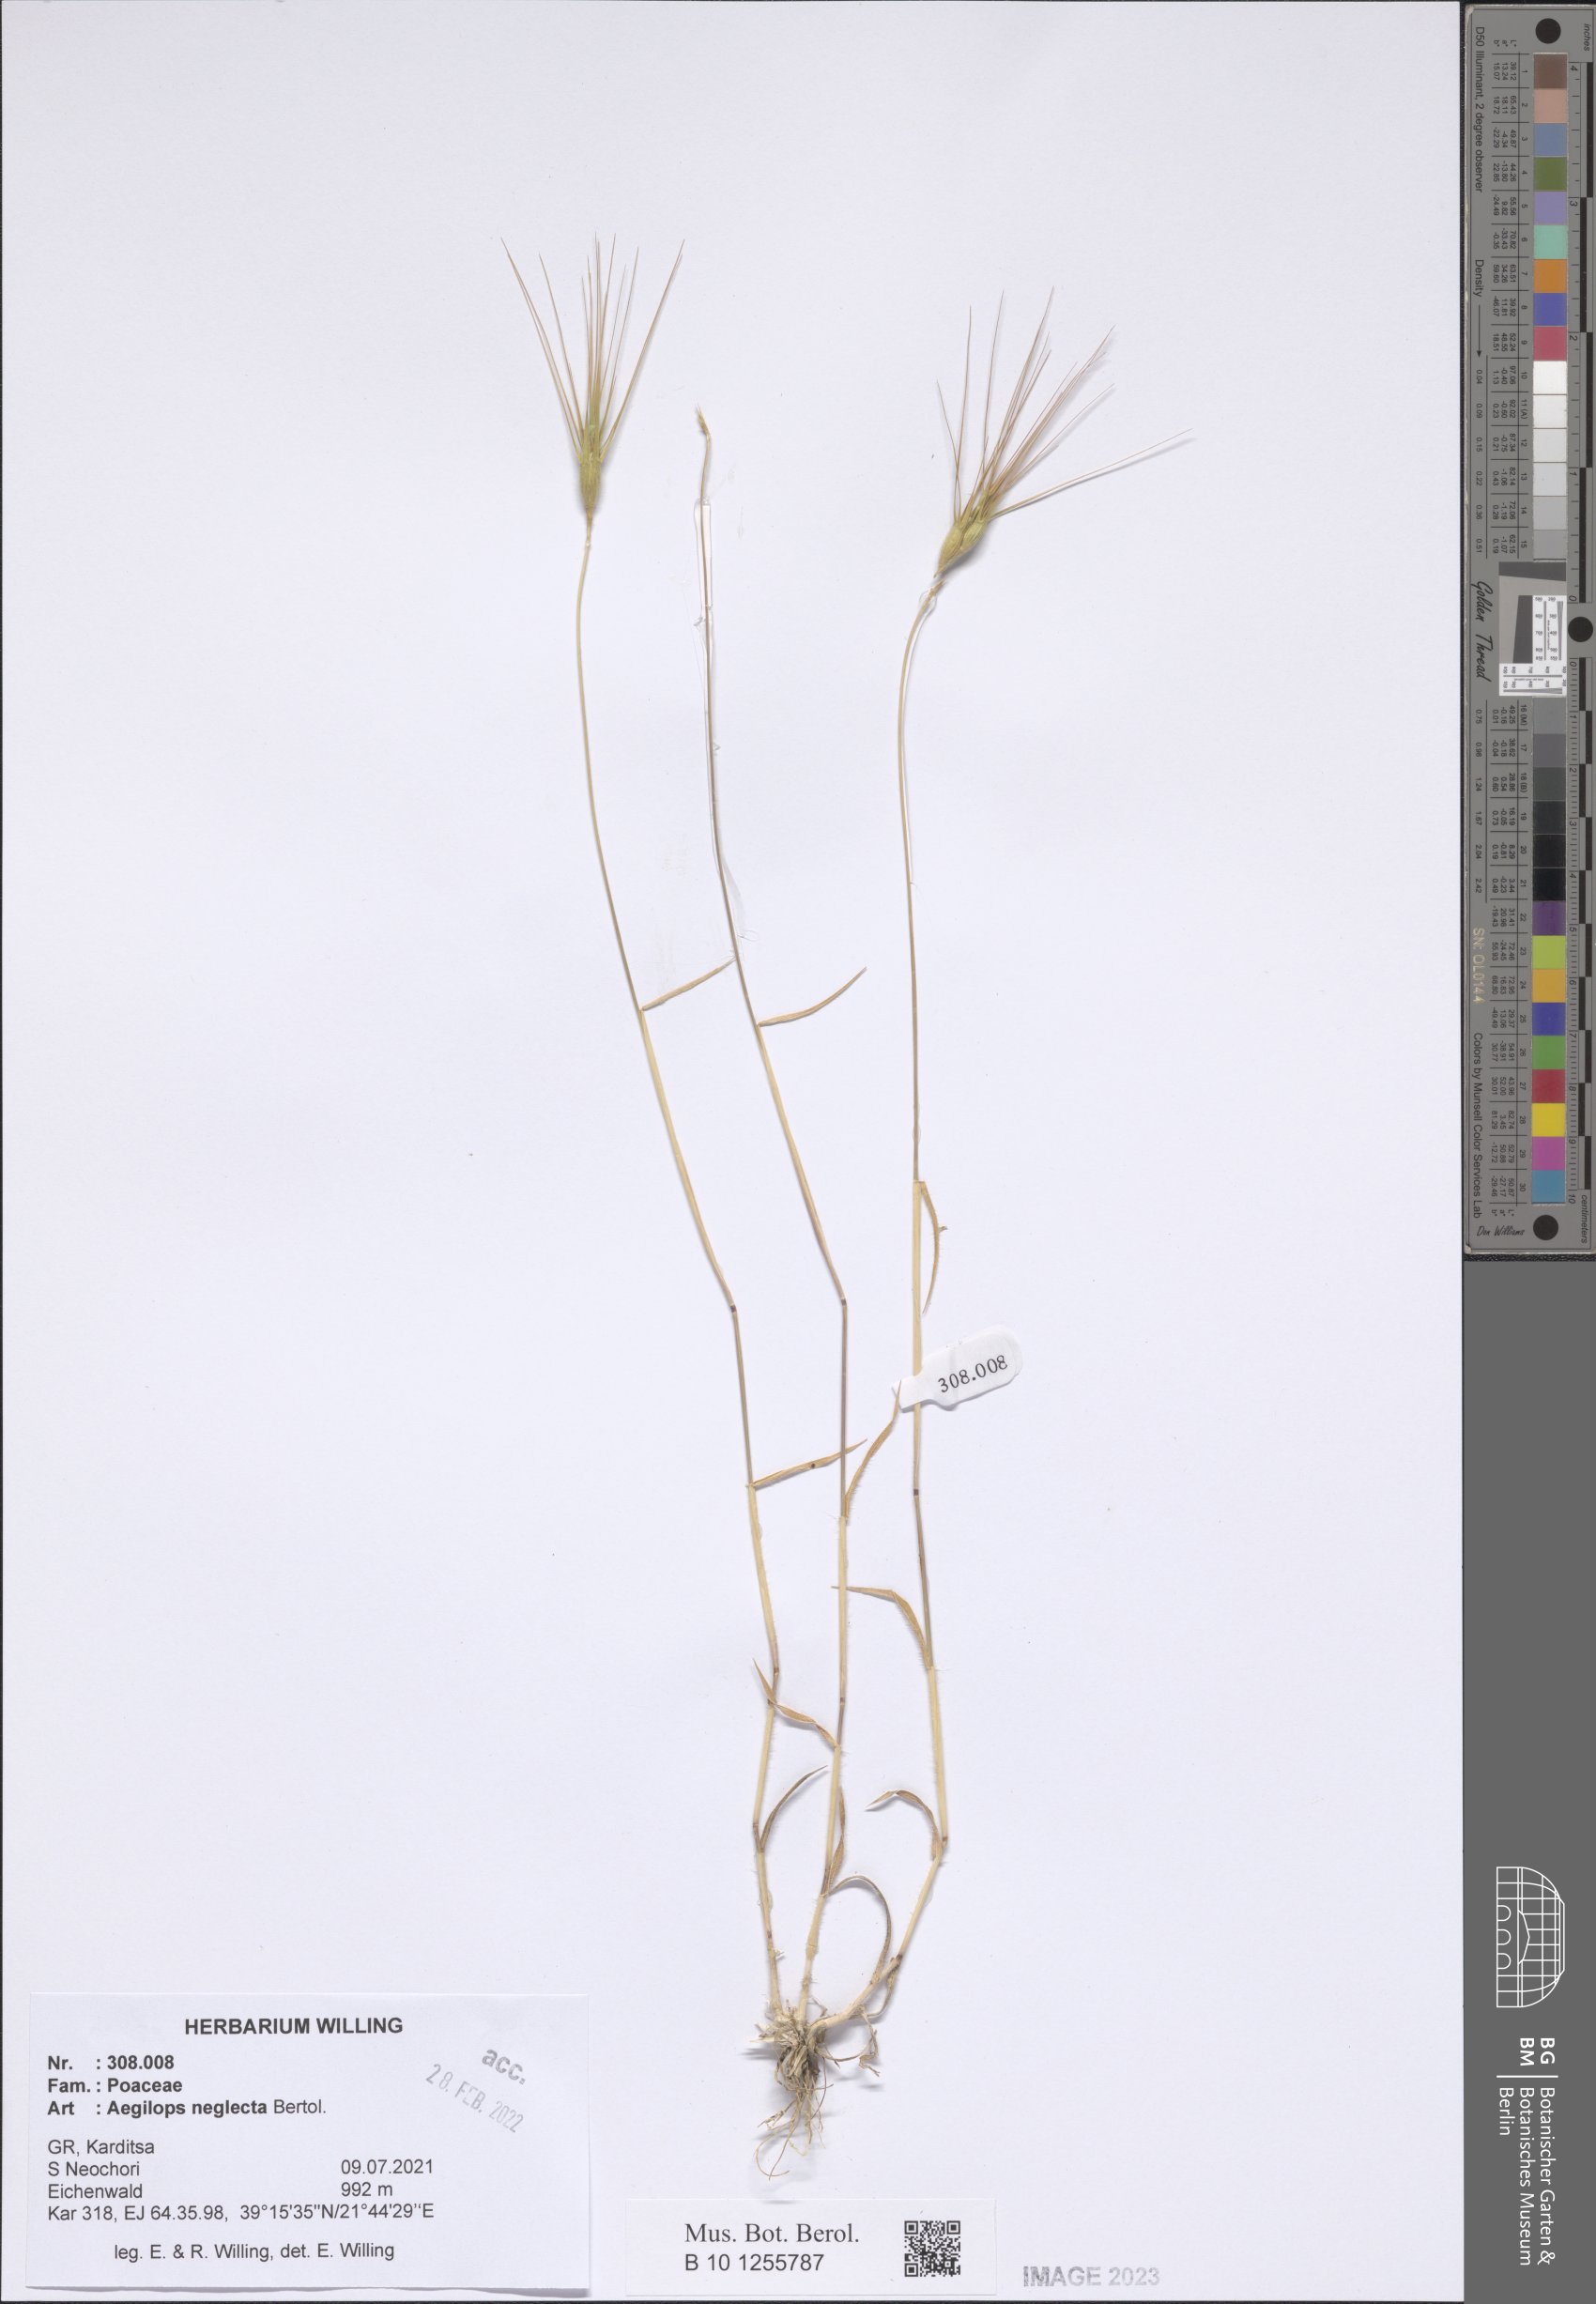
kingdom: Plantae
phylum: Tracheophyta
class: Liliopsida
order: Poales
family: Poaceae
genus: Aegilops
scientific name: Aegilops neglecta
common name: Three-awn goat grass
